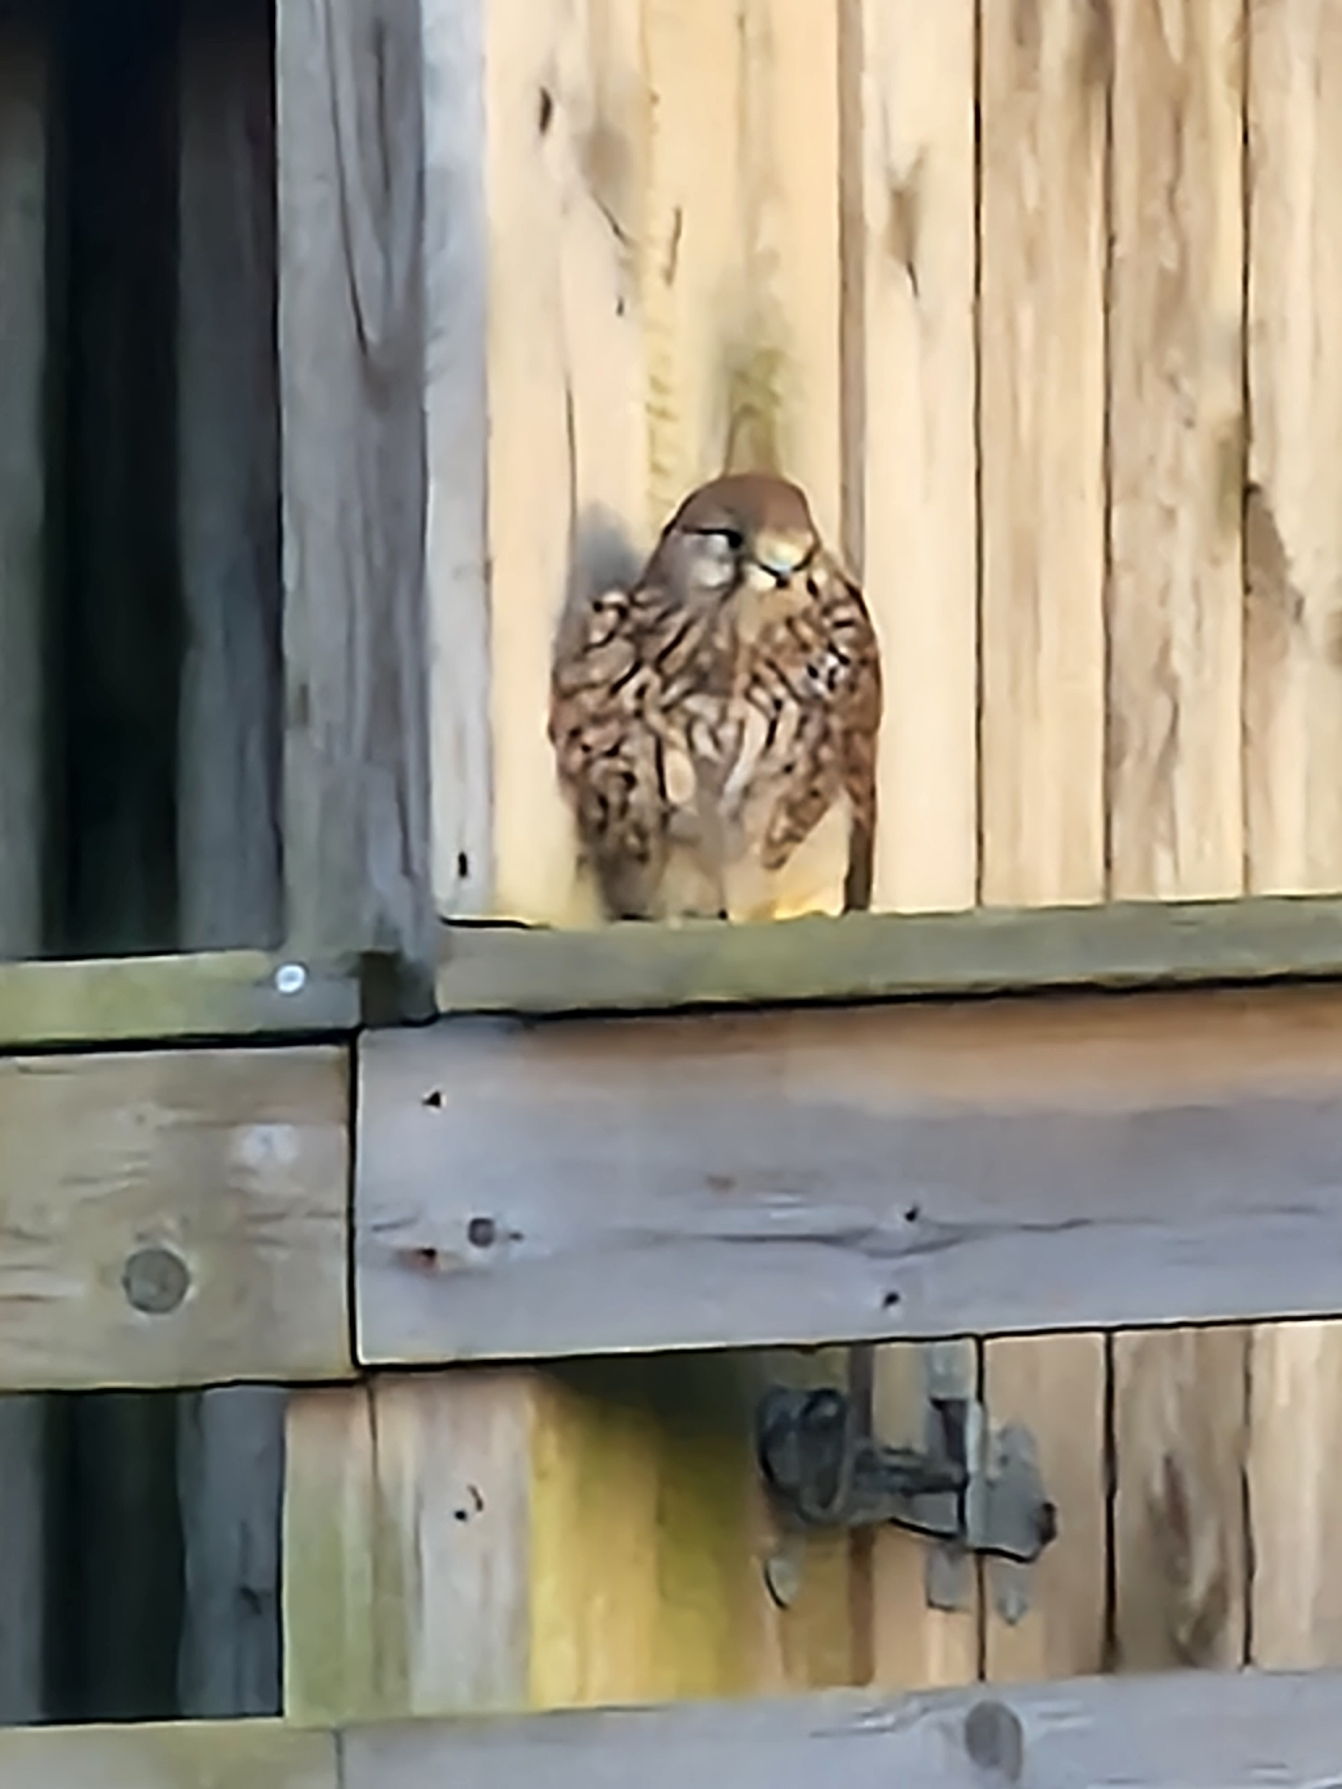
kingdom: Animalia
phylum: Chordata
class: Aves
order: Falconiformes
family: Falconidae
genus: Falco
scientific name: Falco tinnunculus
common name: Tårnfalk
